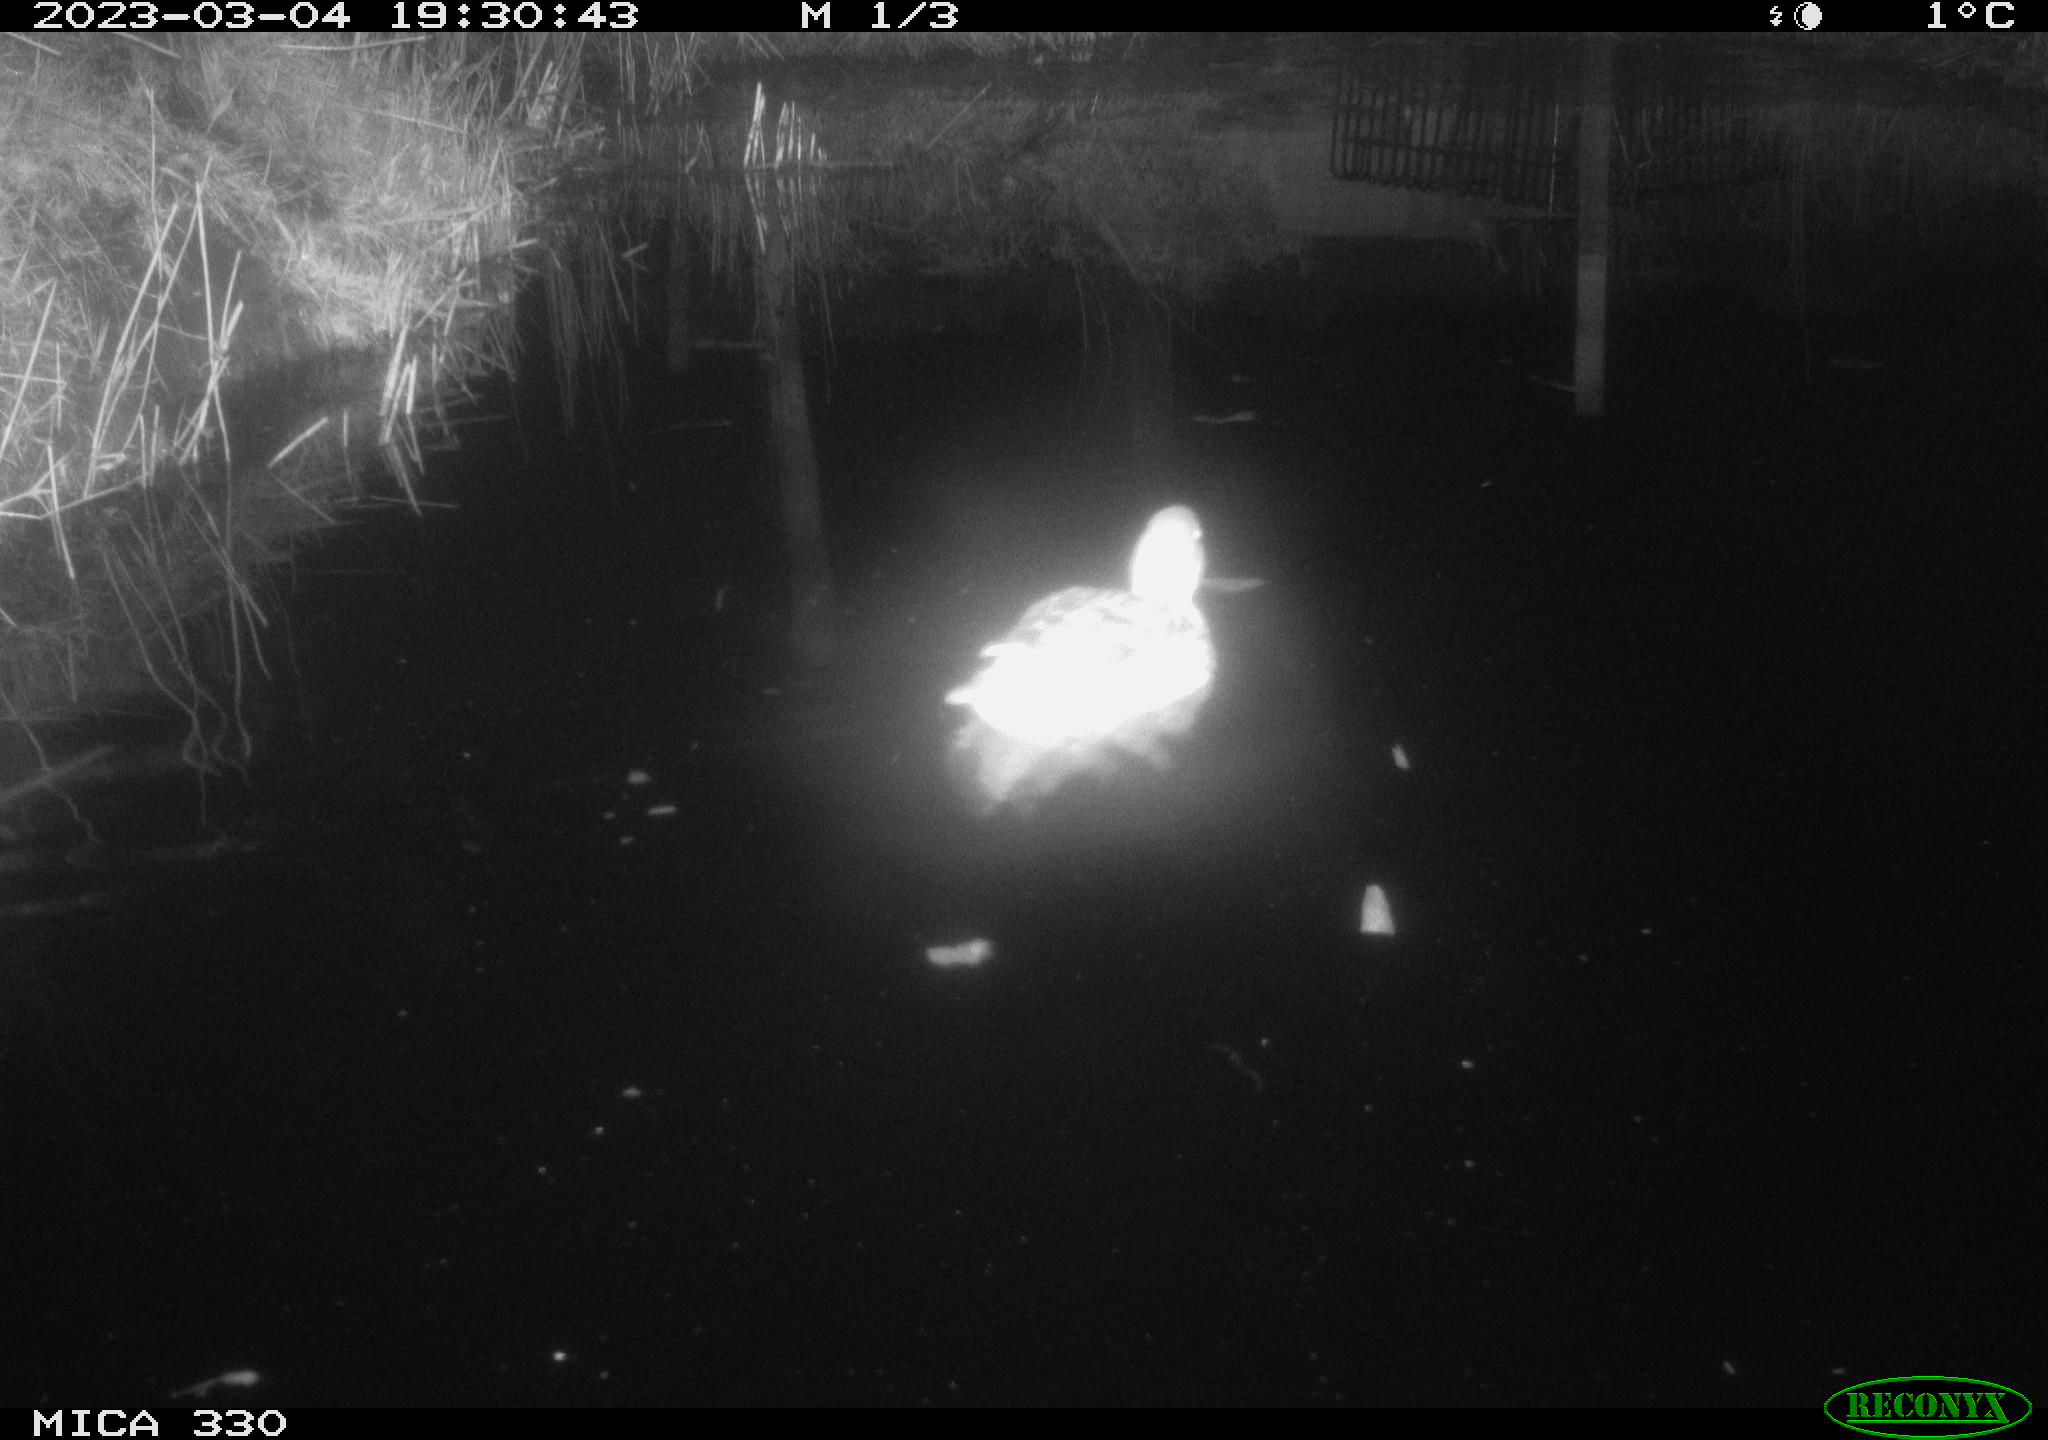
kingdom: Animalia
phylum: Chordata
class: Aves
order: Anseriformes
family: Anatidae
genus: Anas
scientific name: Anas
